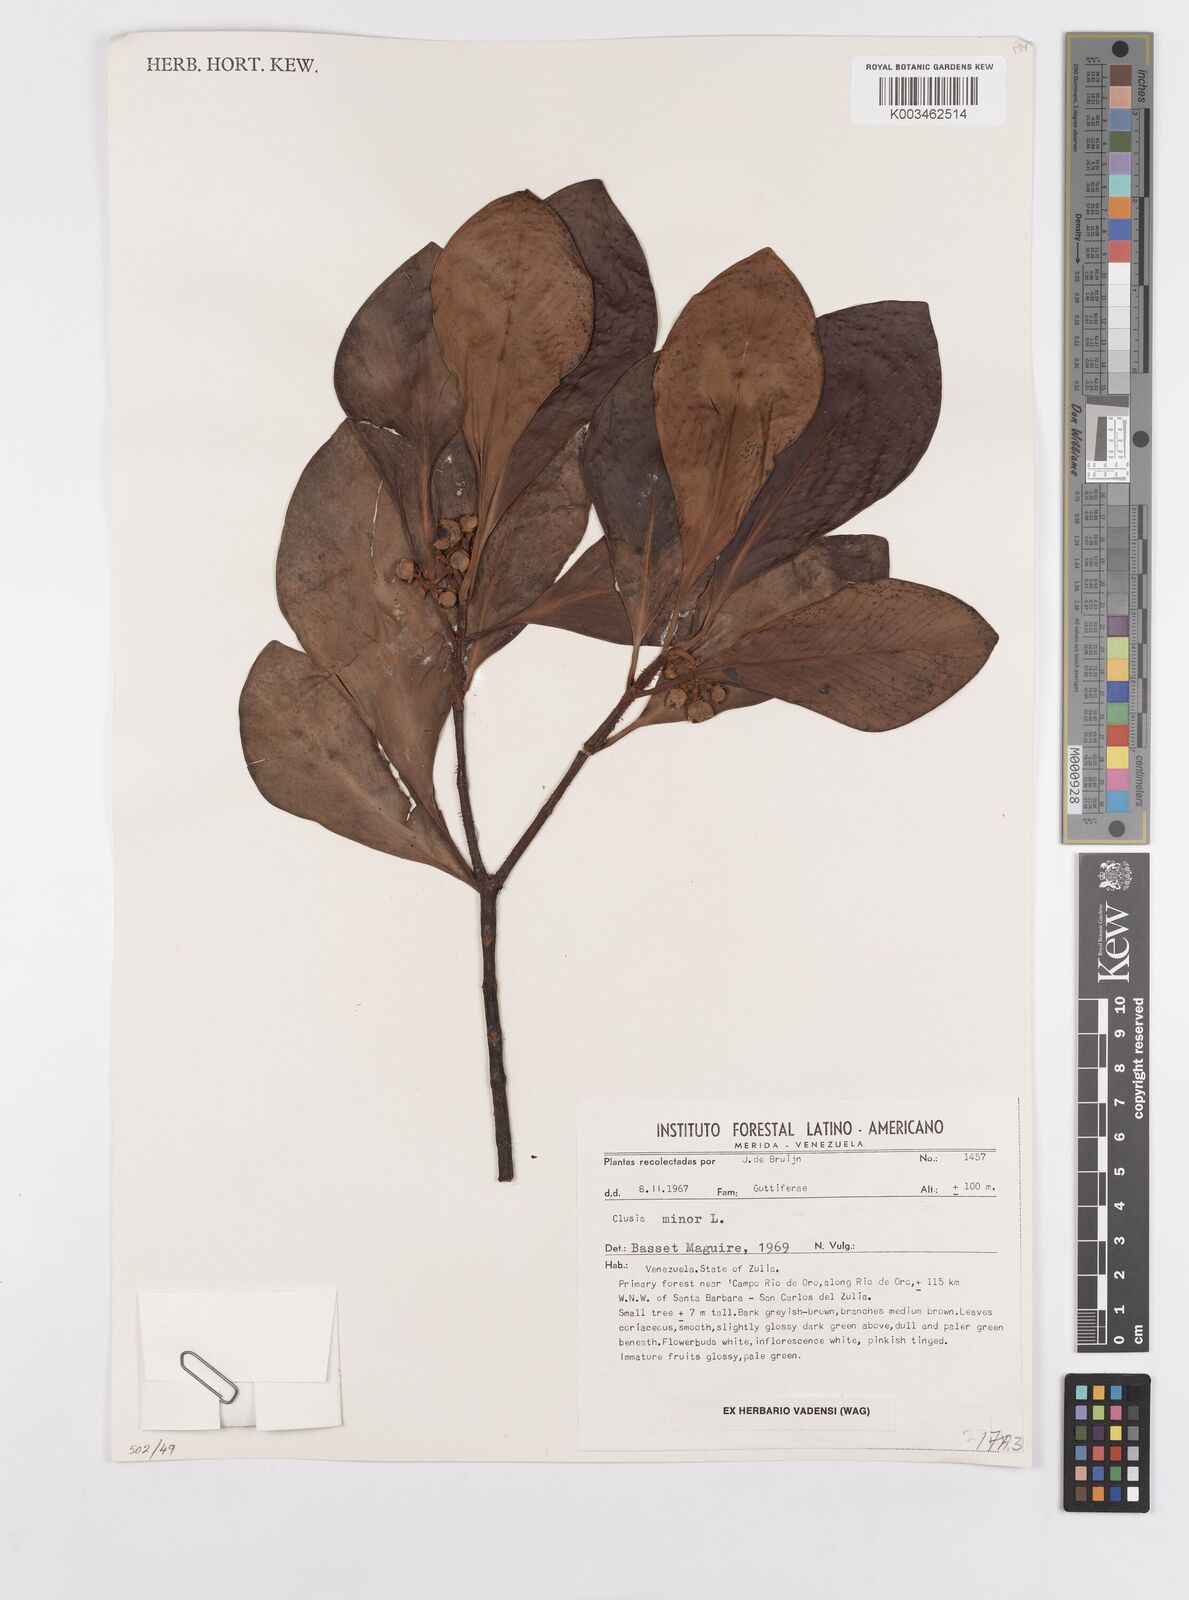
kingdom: Plantae
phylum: Tracheophyta
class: Magnoliopsida
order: Malpighiales
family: Clusiaceae
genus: Clusia
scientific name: Clusia minor
